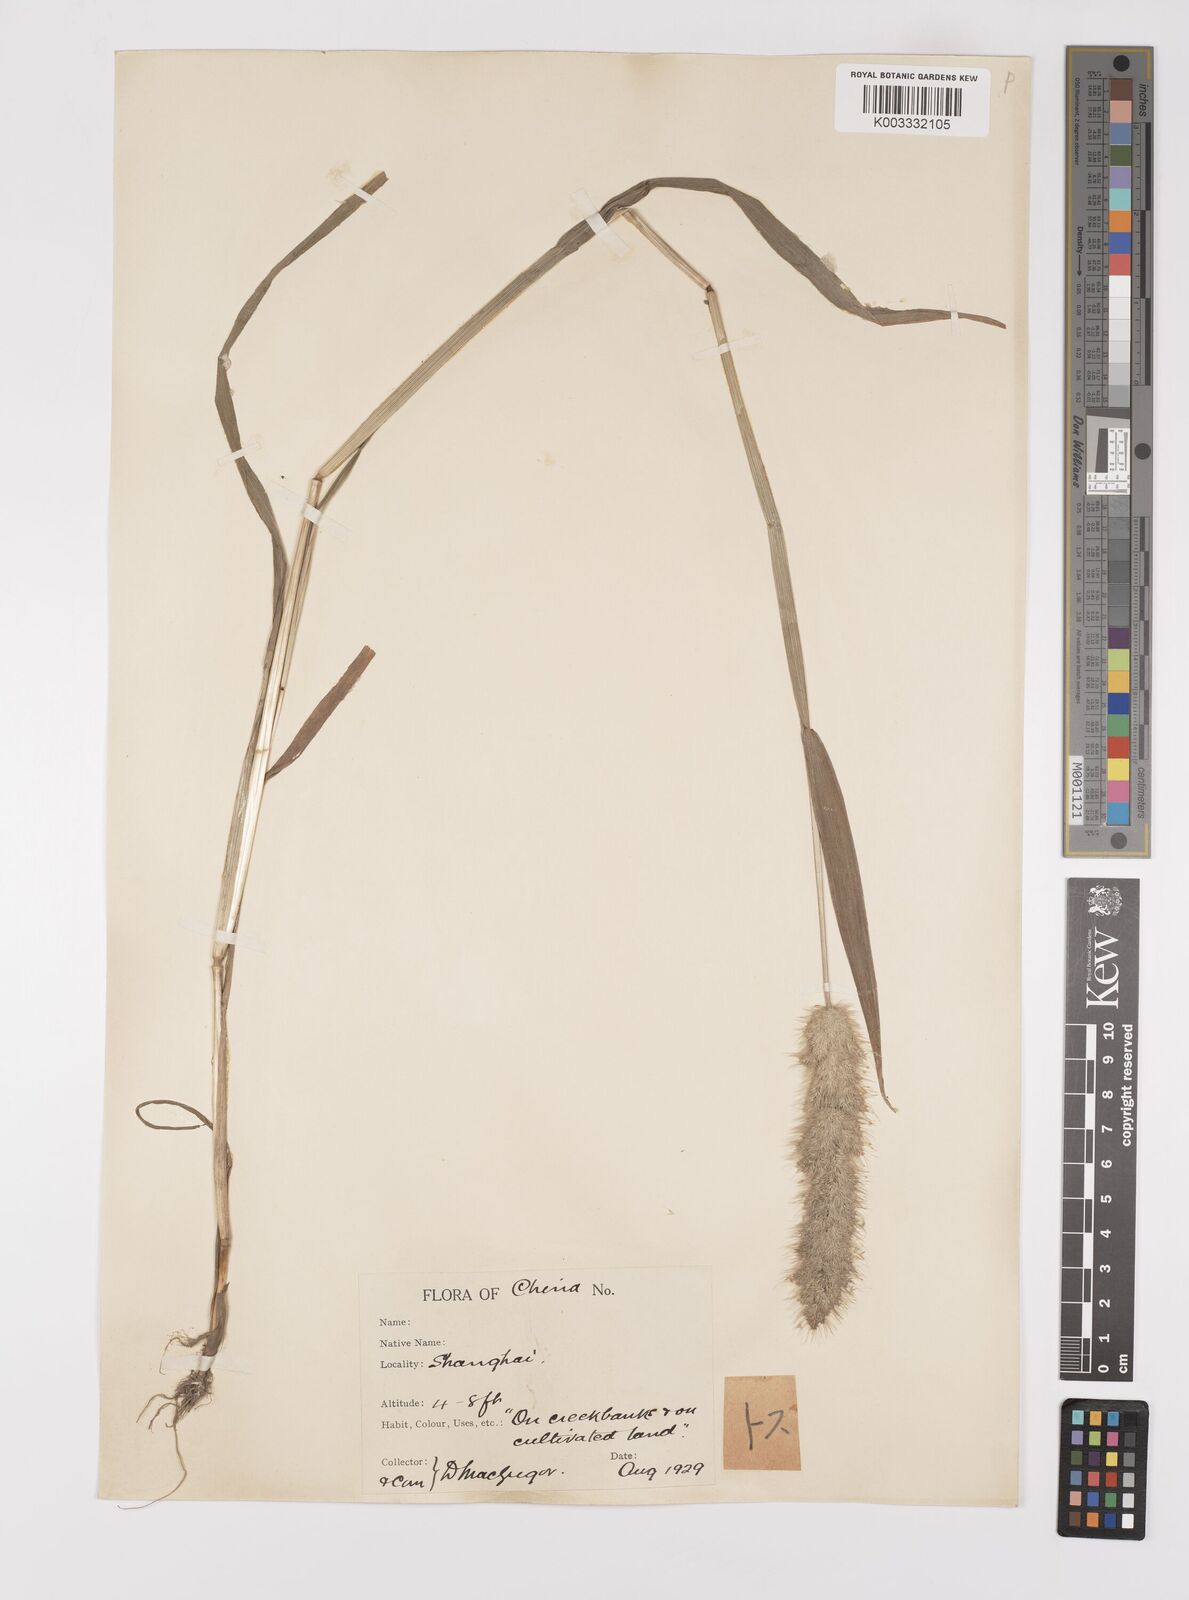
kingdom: Plantae
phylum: Tracheophyta
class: Liliopsida
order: Poales
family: Poaceae
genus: Polypogon
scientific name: Polypogon monspeliensis
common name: Annual rabbitsfoot grass
